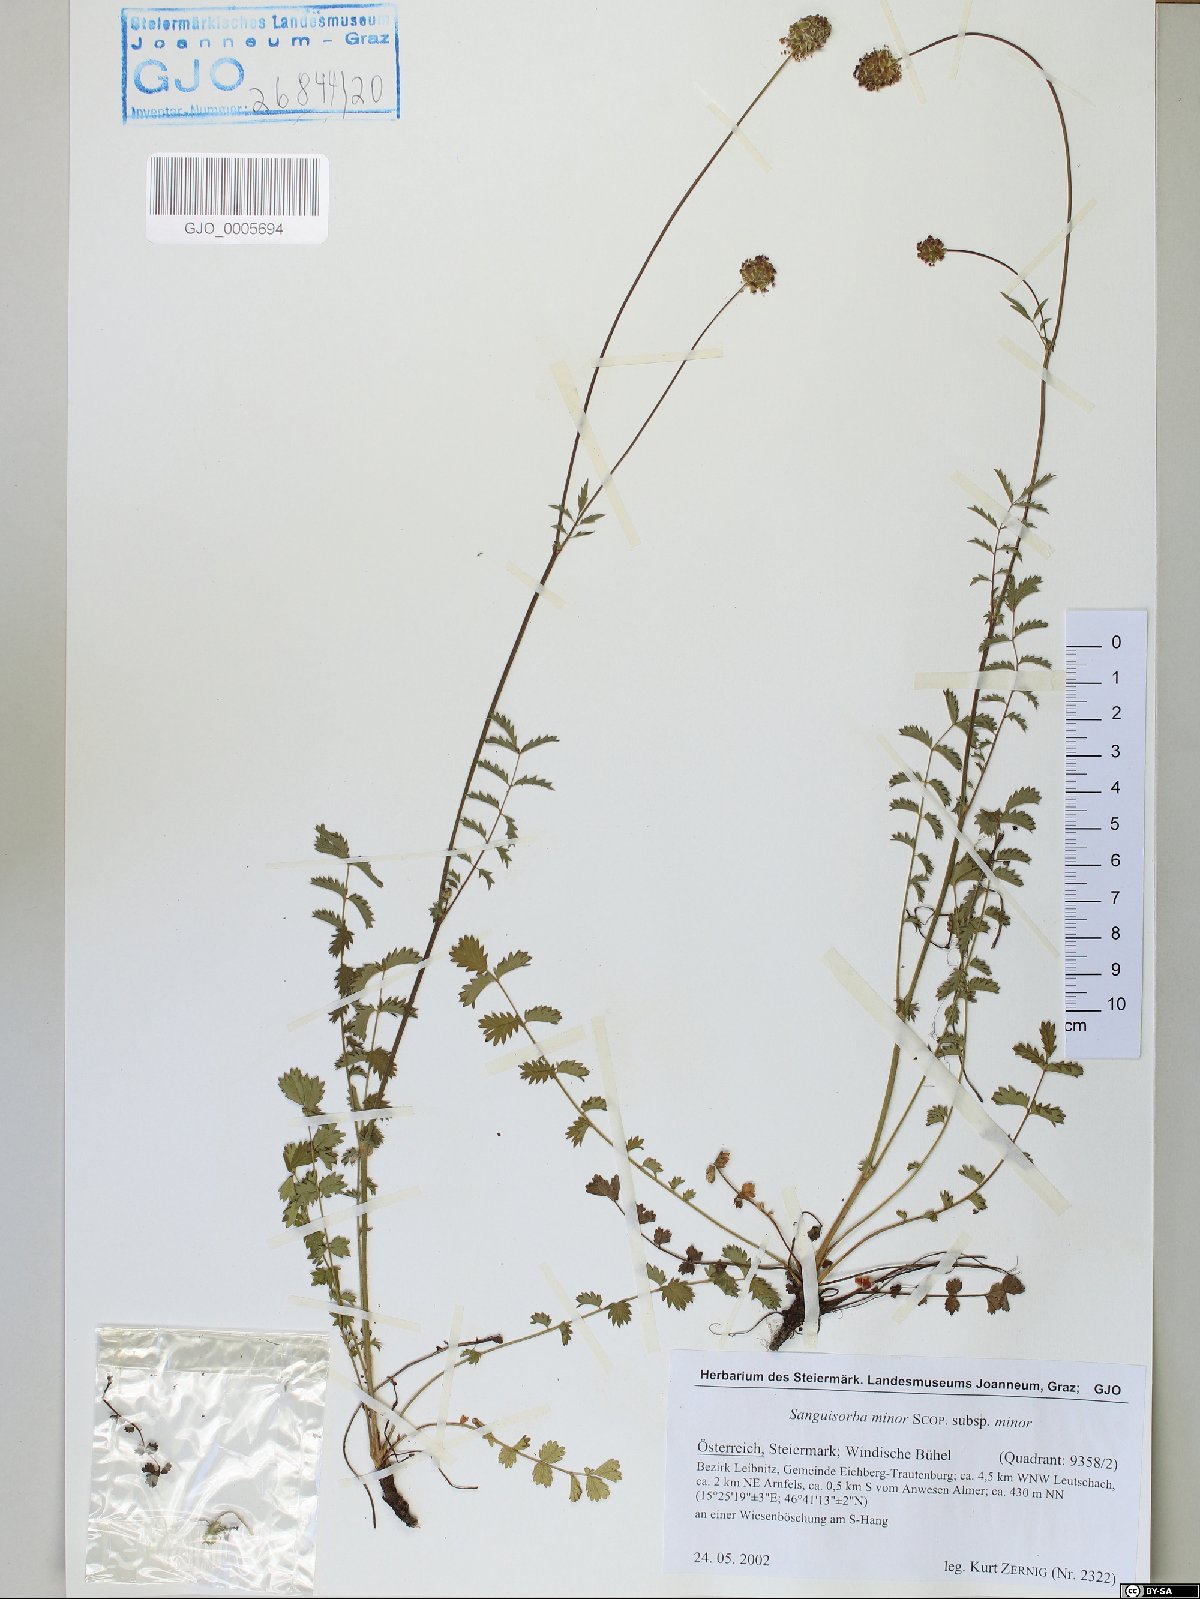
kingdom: Plantae
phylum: Tracheophyta
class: Magnoliopsida
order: Rosales
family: Rosaceae
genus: Poterium
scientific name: Poterium sanguisorba
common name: Salad burnet
